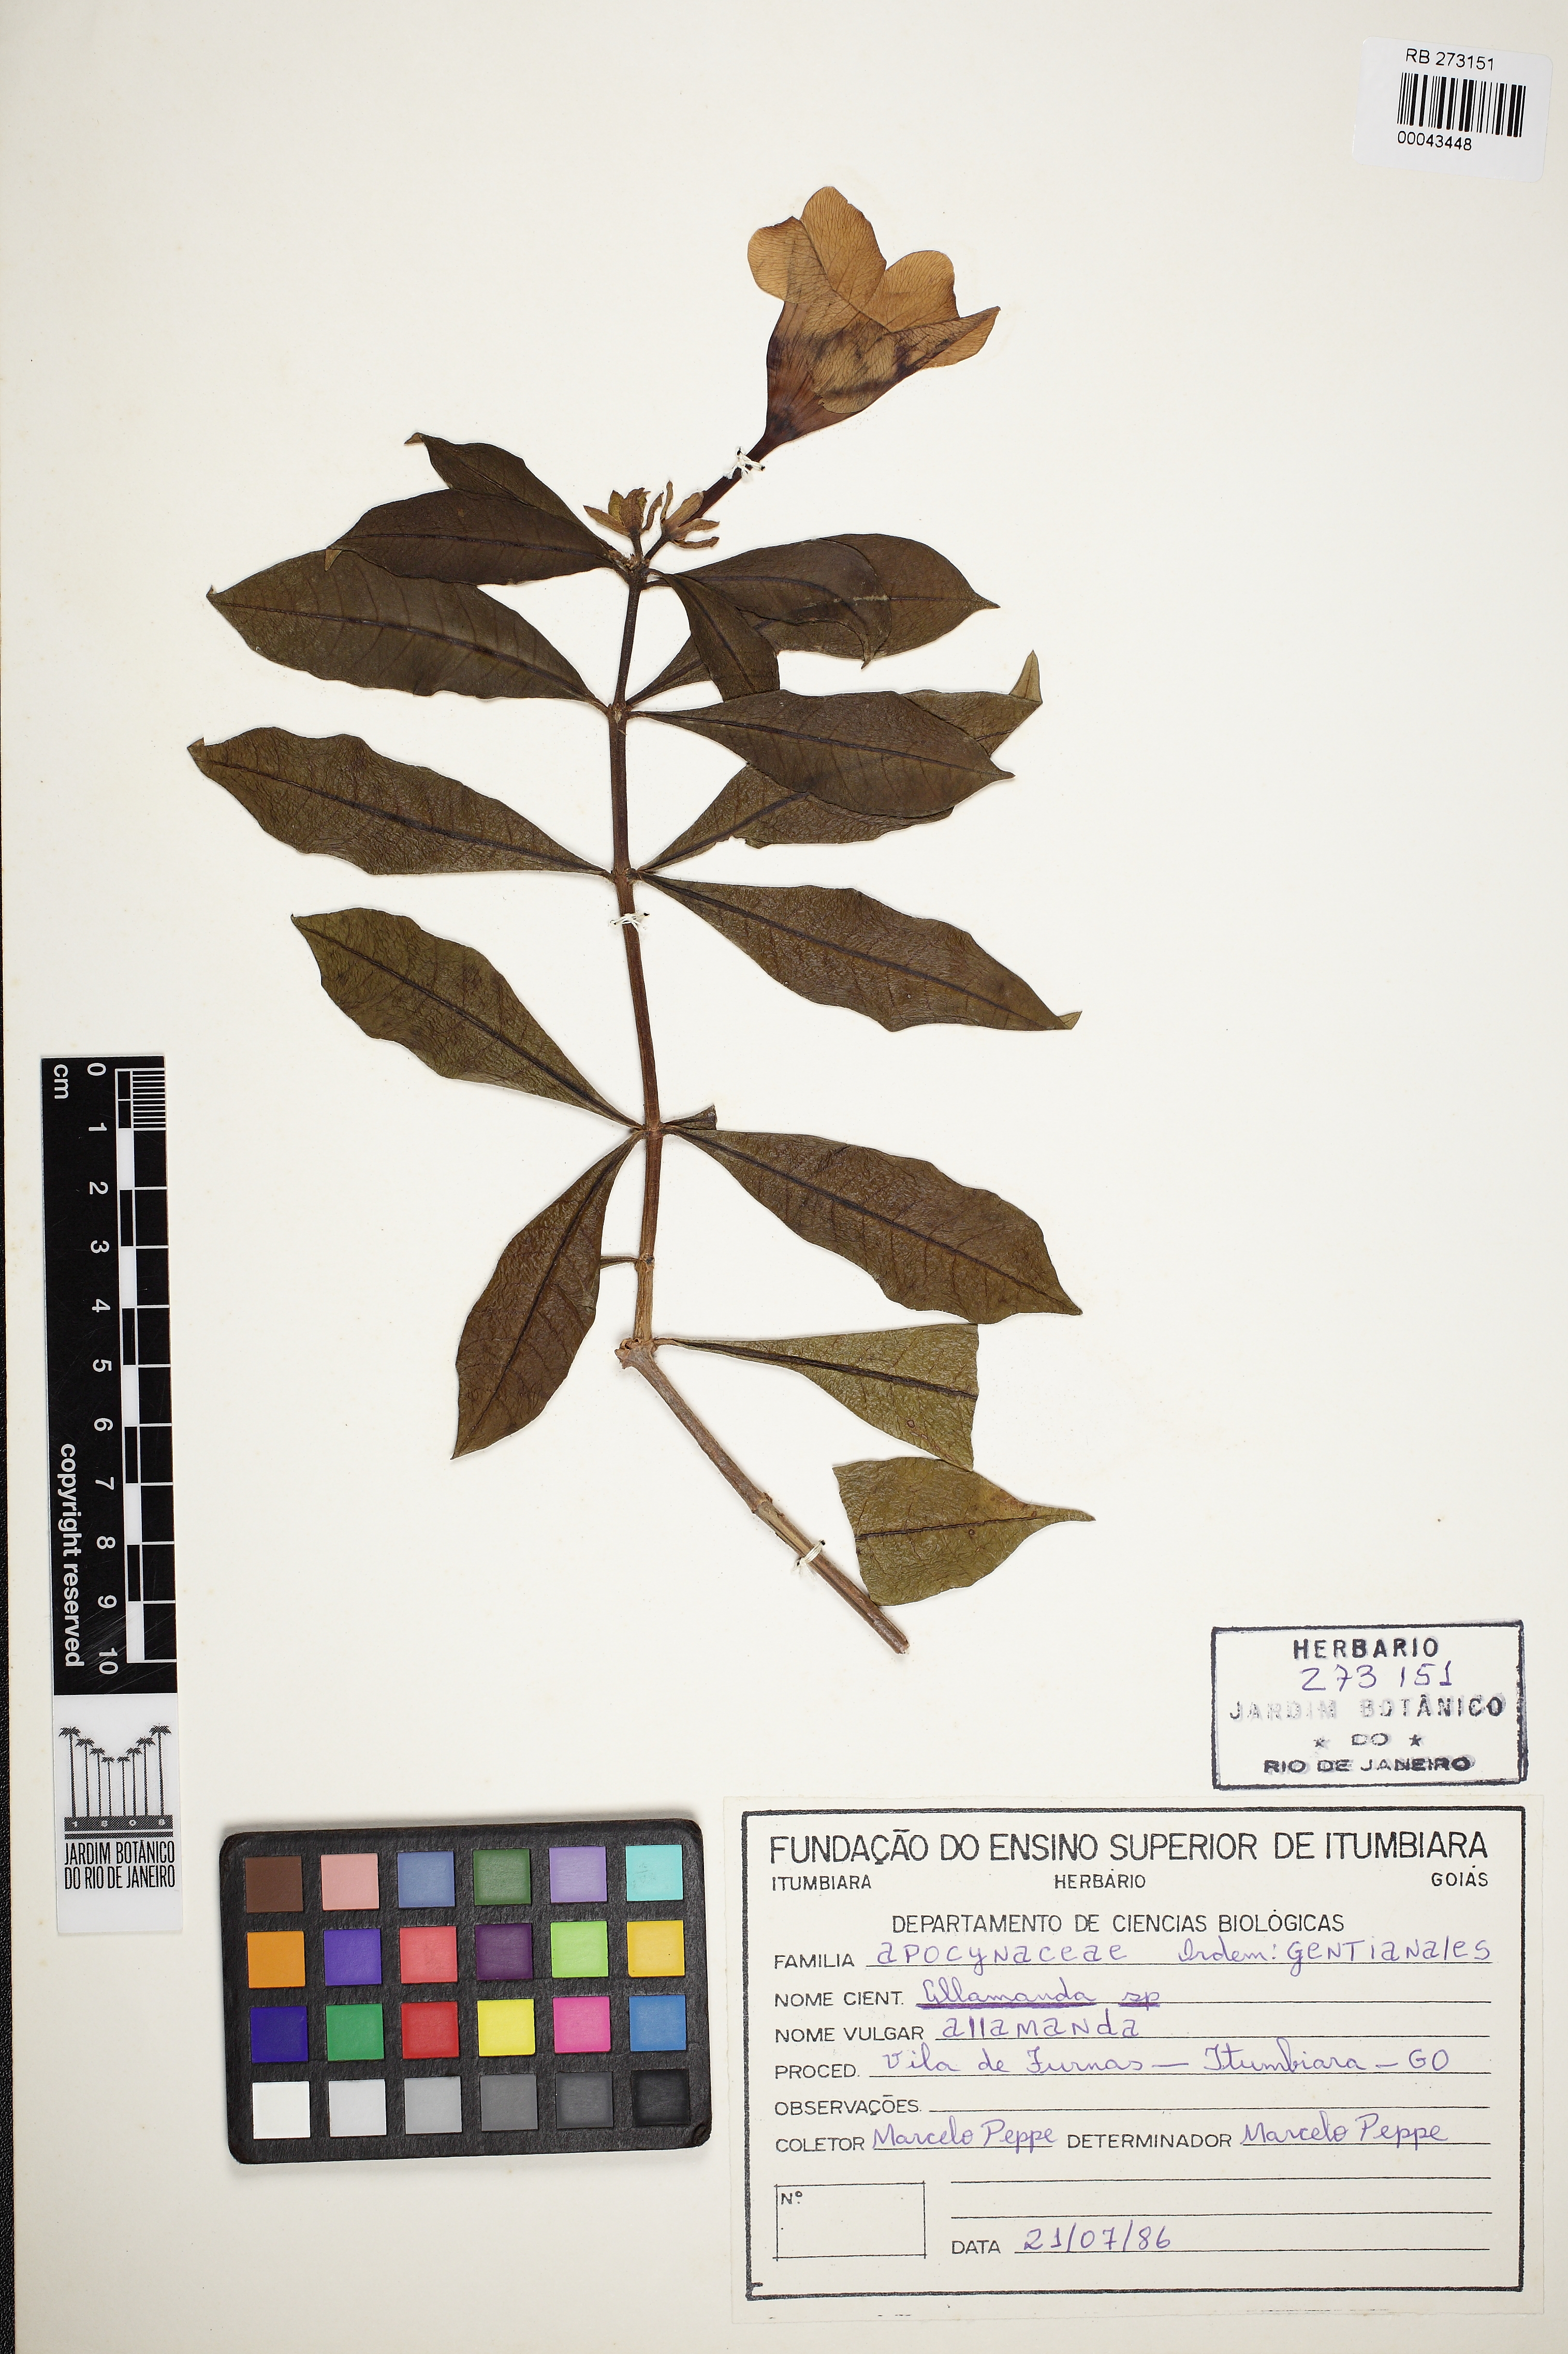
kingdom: Plantae
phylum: Tracheophyta
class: Magnoliopsida
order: Gentianales
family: Apocynaceae
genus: Allamanda
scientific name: Allamanda
